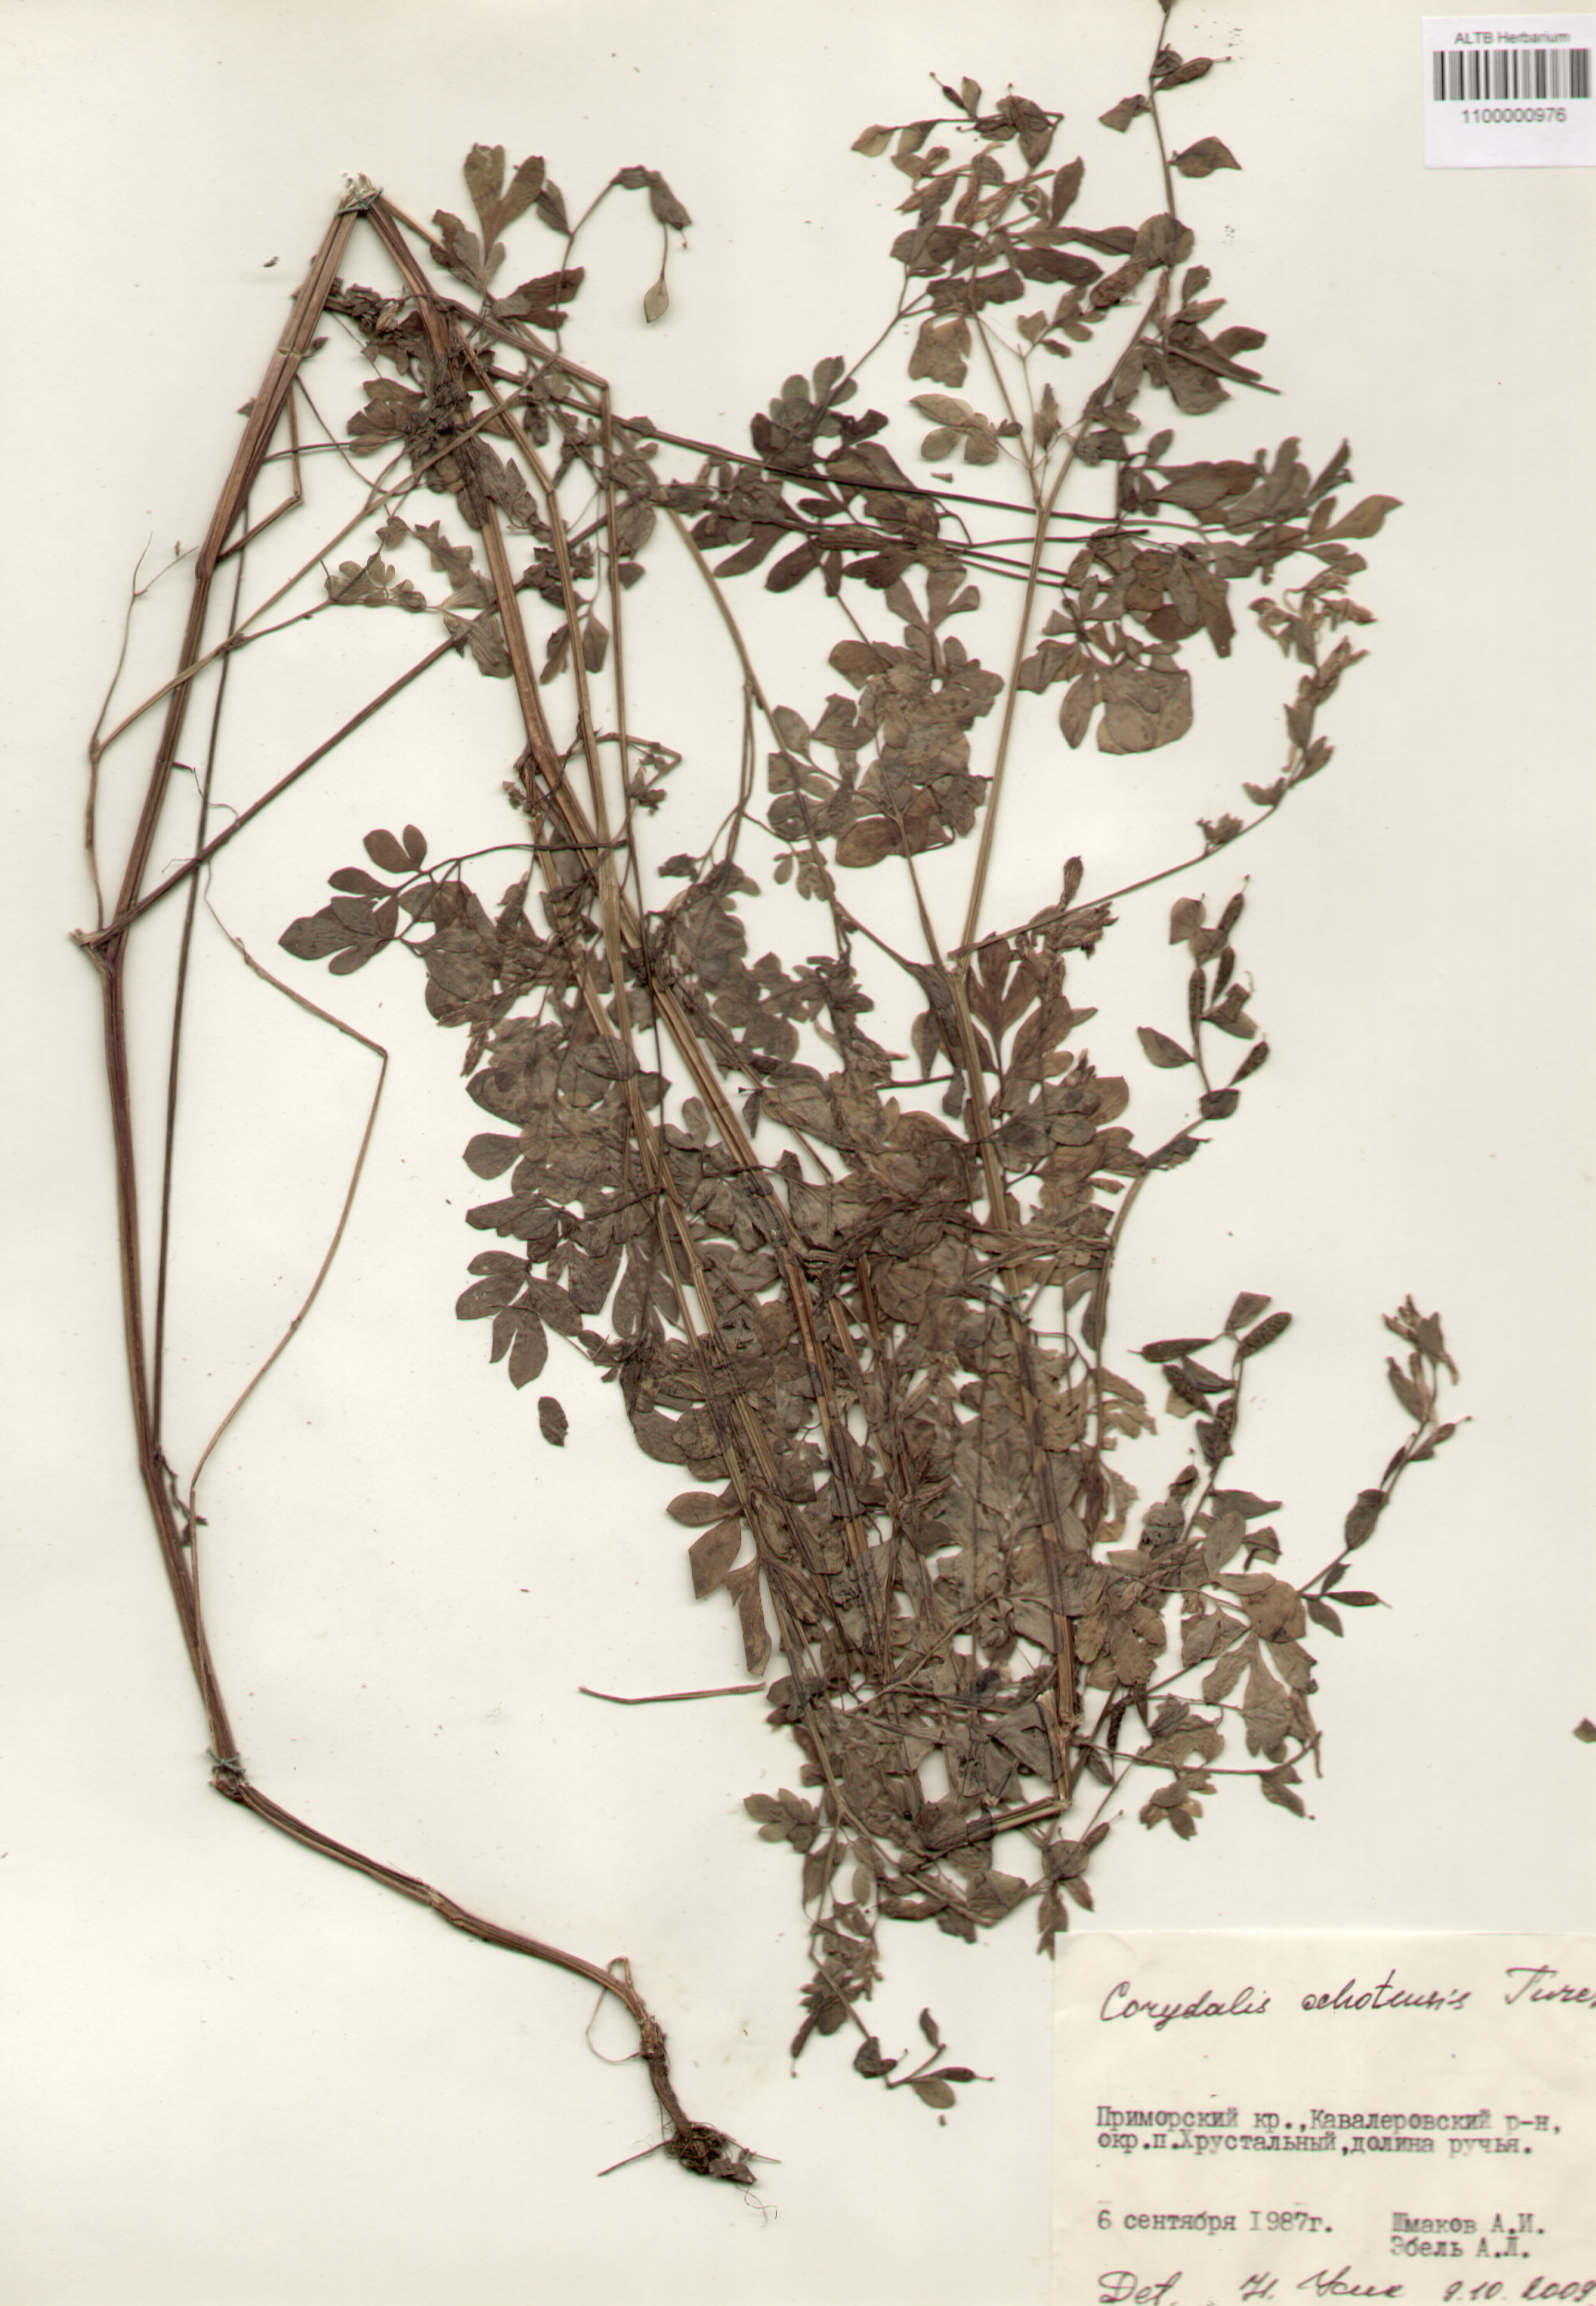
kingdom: Plantae
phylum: Tracheophyta
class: Magnoliopsida
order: Ranunculales
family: Papaveraceae
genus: Corydalis
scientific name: Corydalis ochotensis
